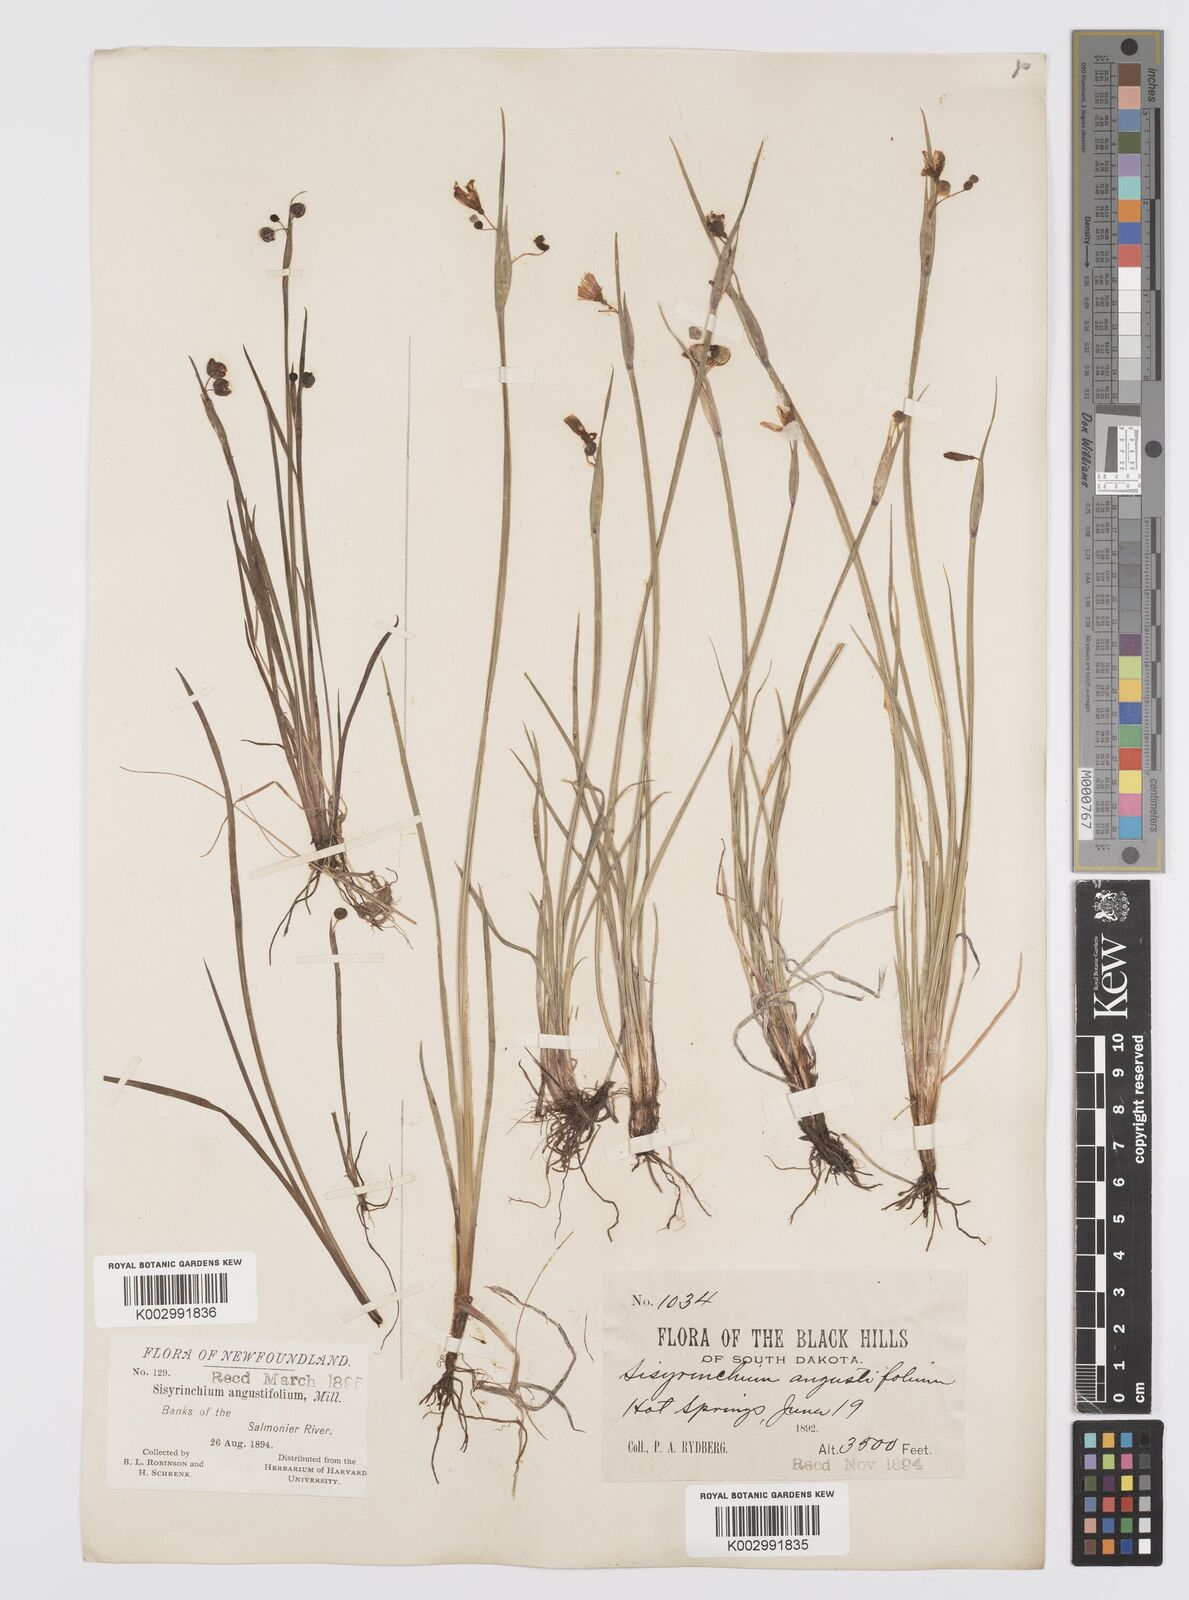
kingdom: Plantae
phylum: Tracheophyta
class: Liliopsida
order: Asparagales
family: Iridaceae
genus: Sisyrinchium
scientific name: Sisyrinchium bermudiana
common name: Blue-eyed-grass
